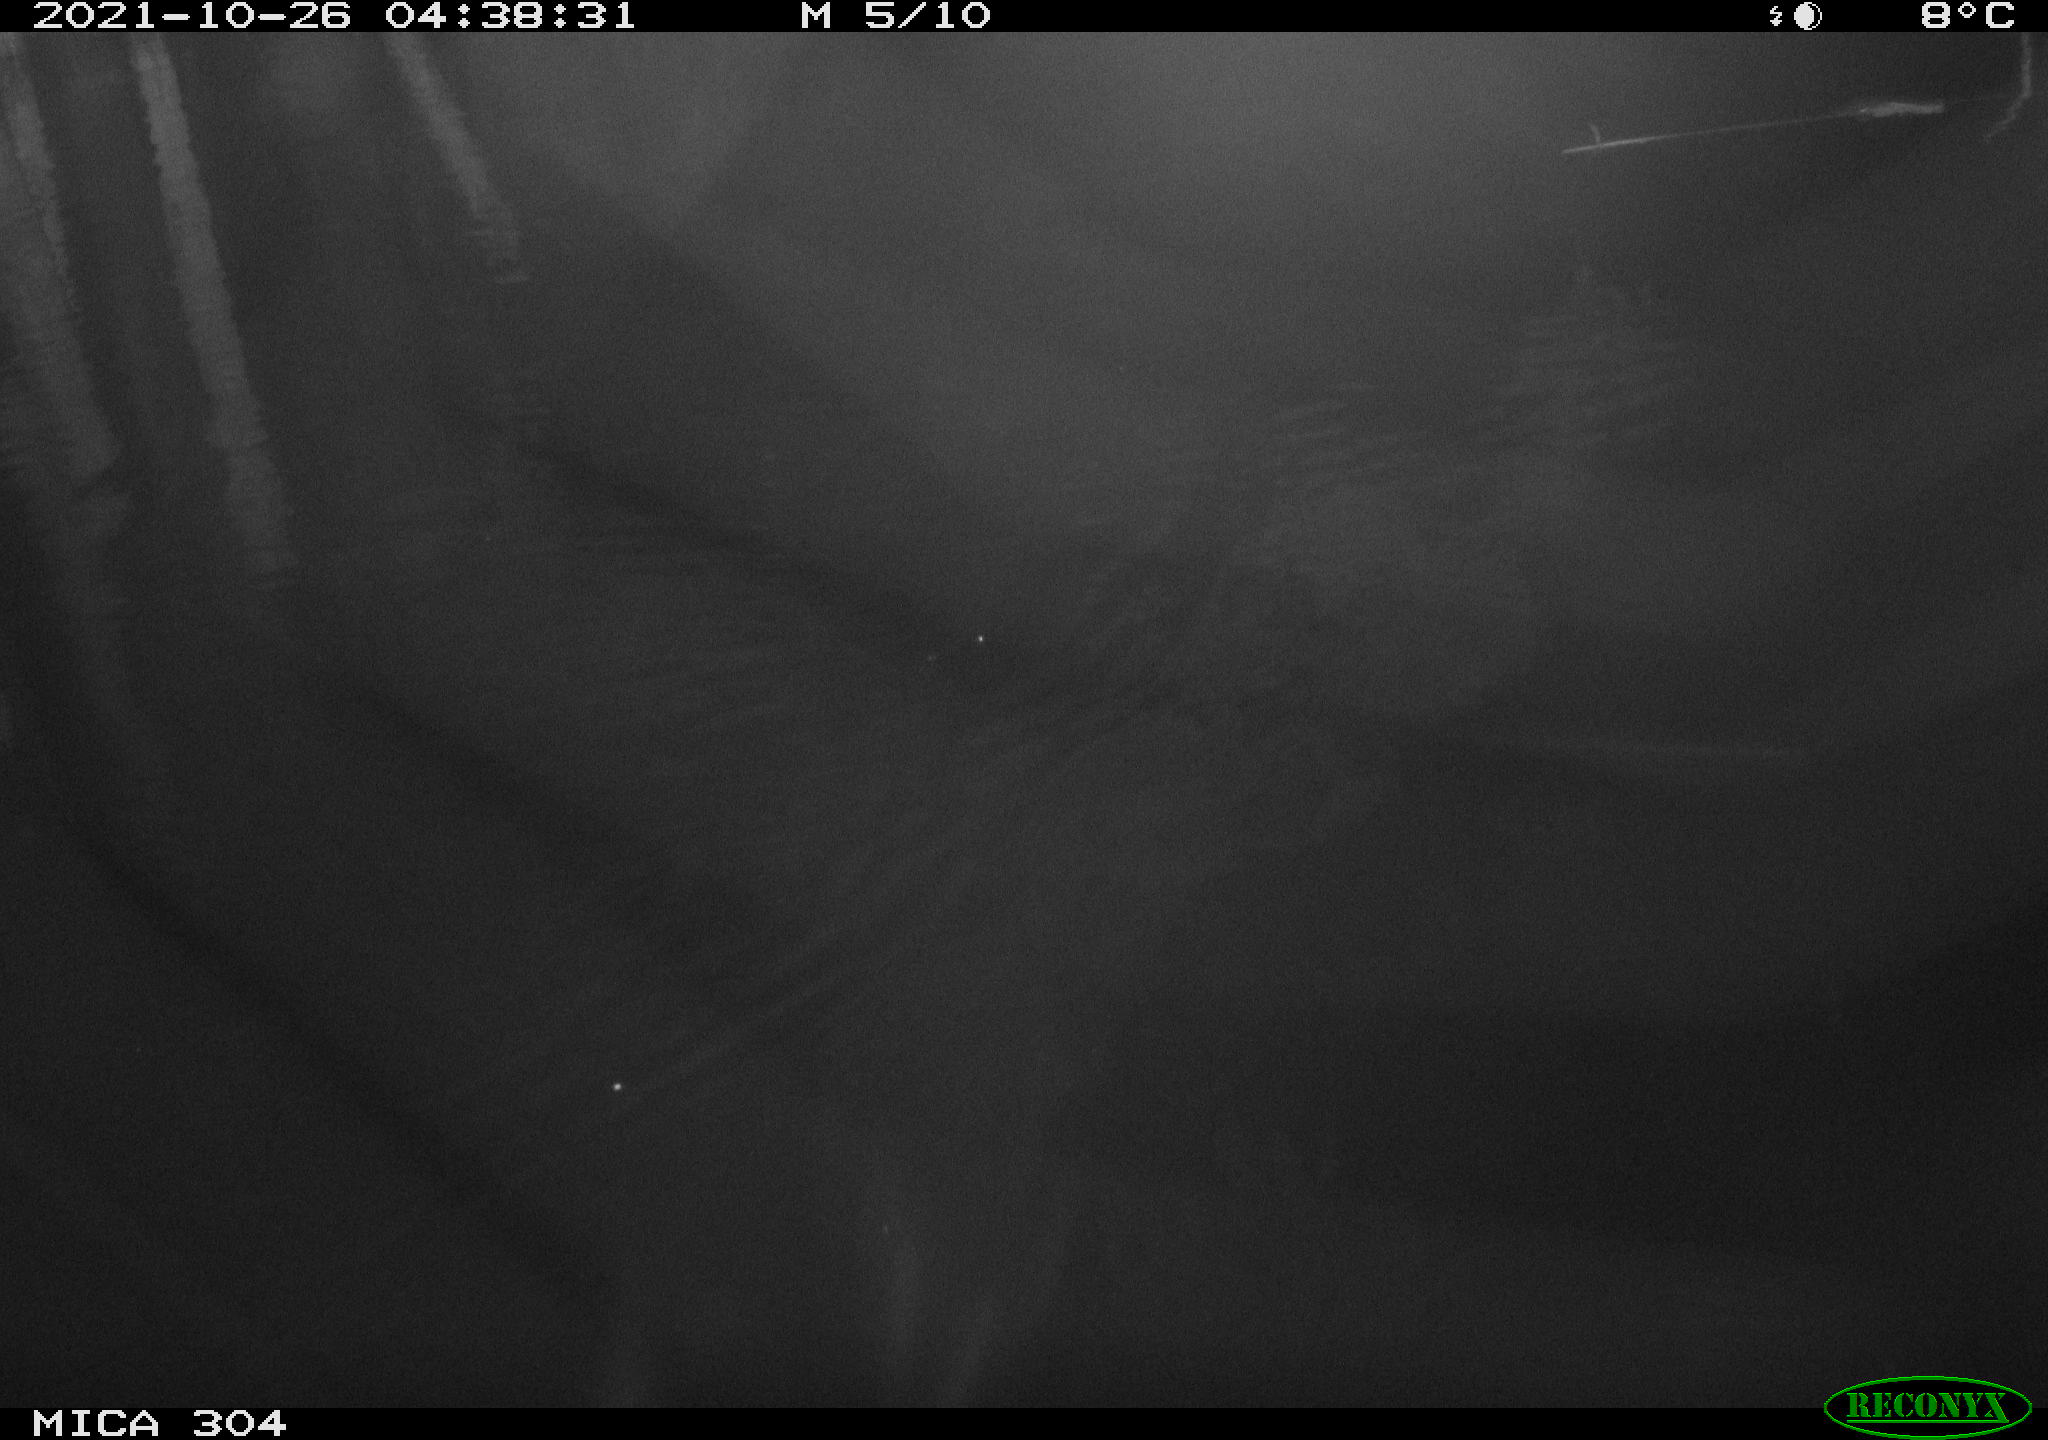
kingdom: Animalia
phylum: Chordata
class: Mammalia
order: Rodentia
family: Muridae
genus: Rattus
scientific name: Rattus norvegicus
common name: Brown rat
